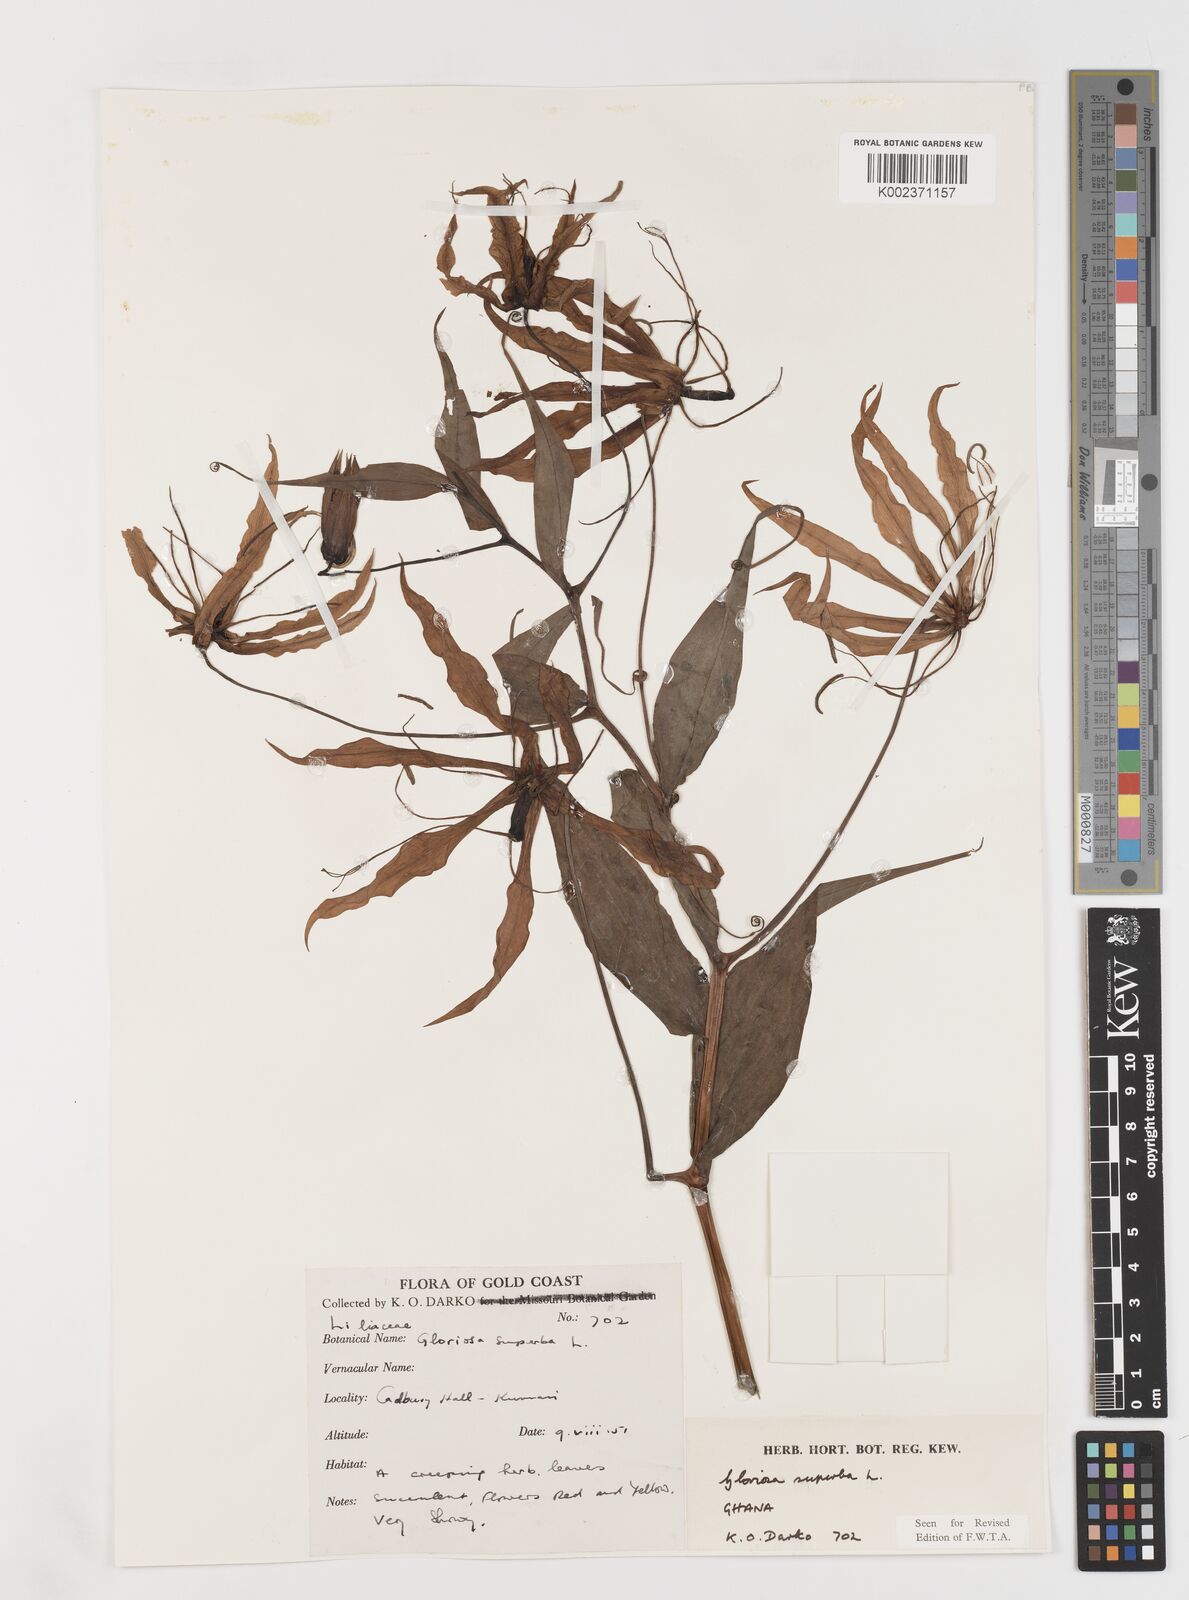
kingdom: Plantae
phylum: Tracheophyta
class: Liliopsida
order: Liliales
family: Colchicaceae
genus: Gloriosa
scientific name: Gloriosa simplex
